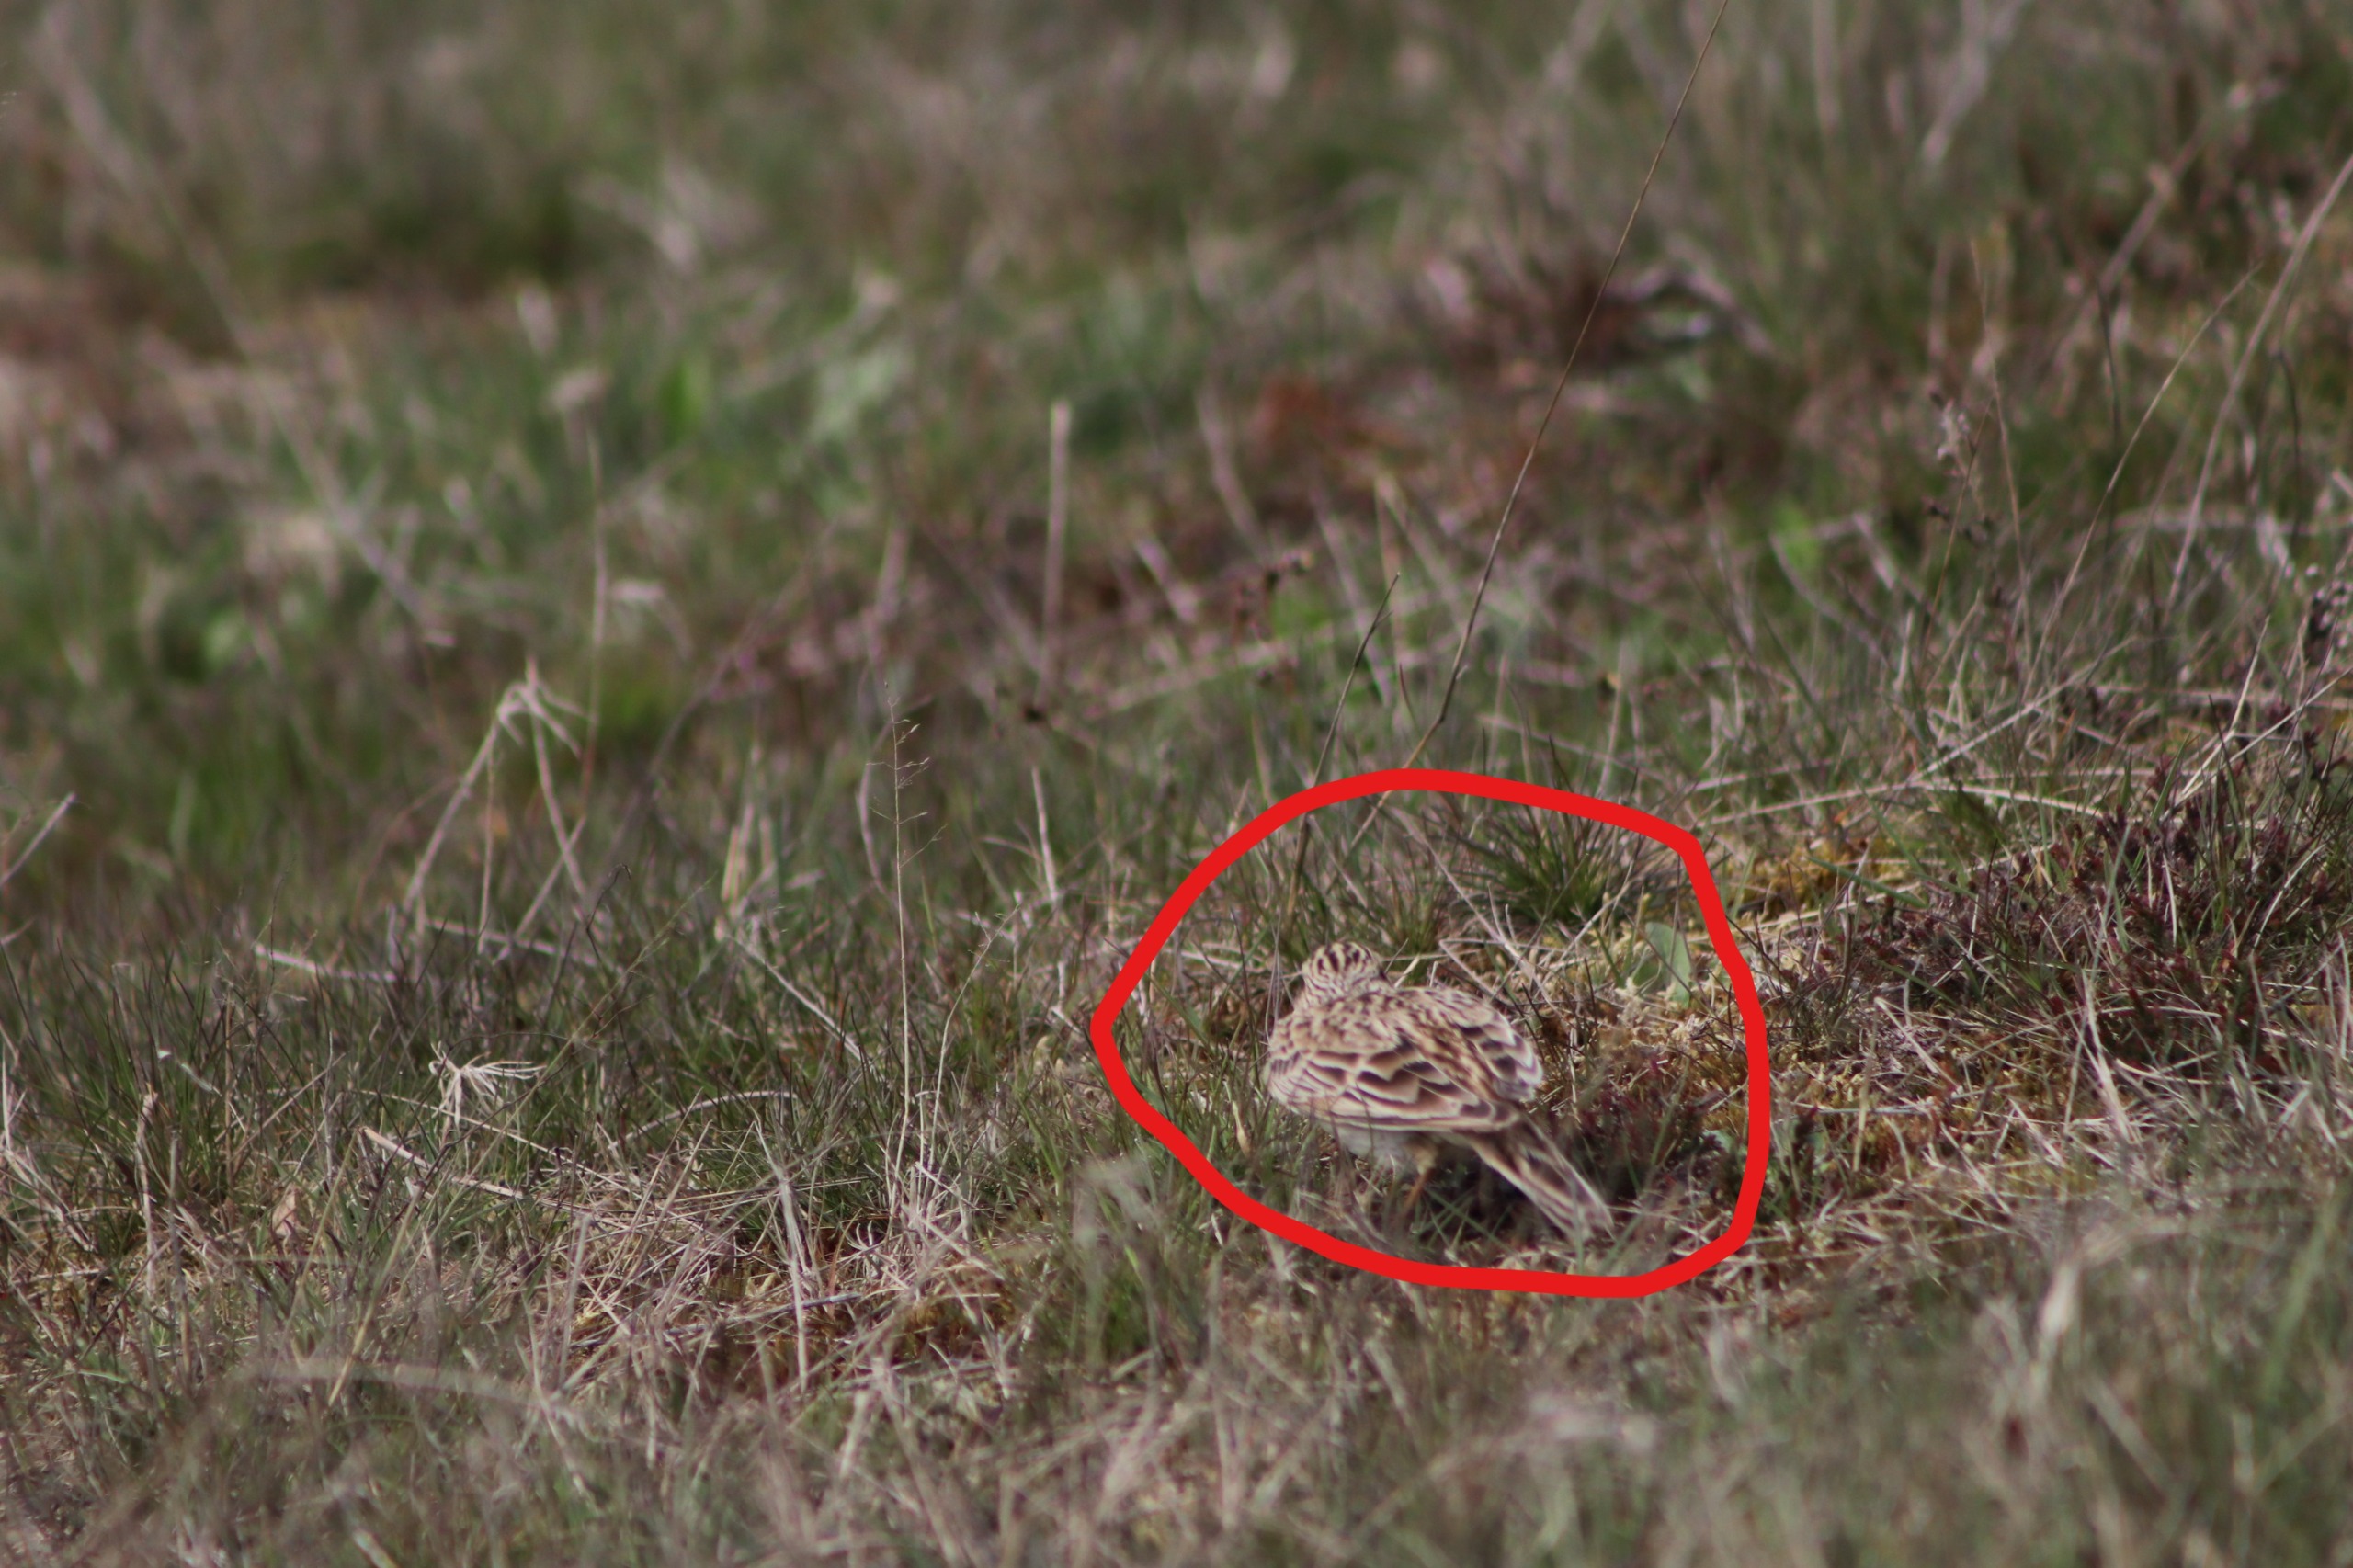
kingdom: Animalia
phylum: Chordata
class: Aves
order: Passeriformes
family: Alaudidae
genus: Alauda
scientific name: Alauda arvensis
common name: Sanglærke
